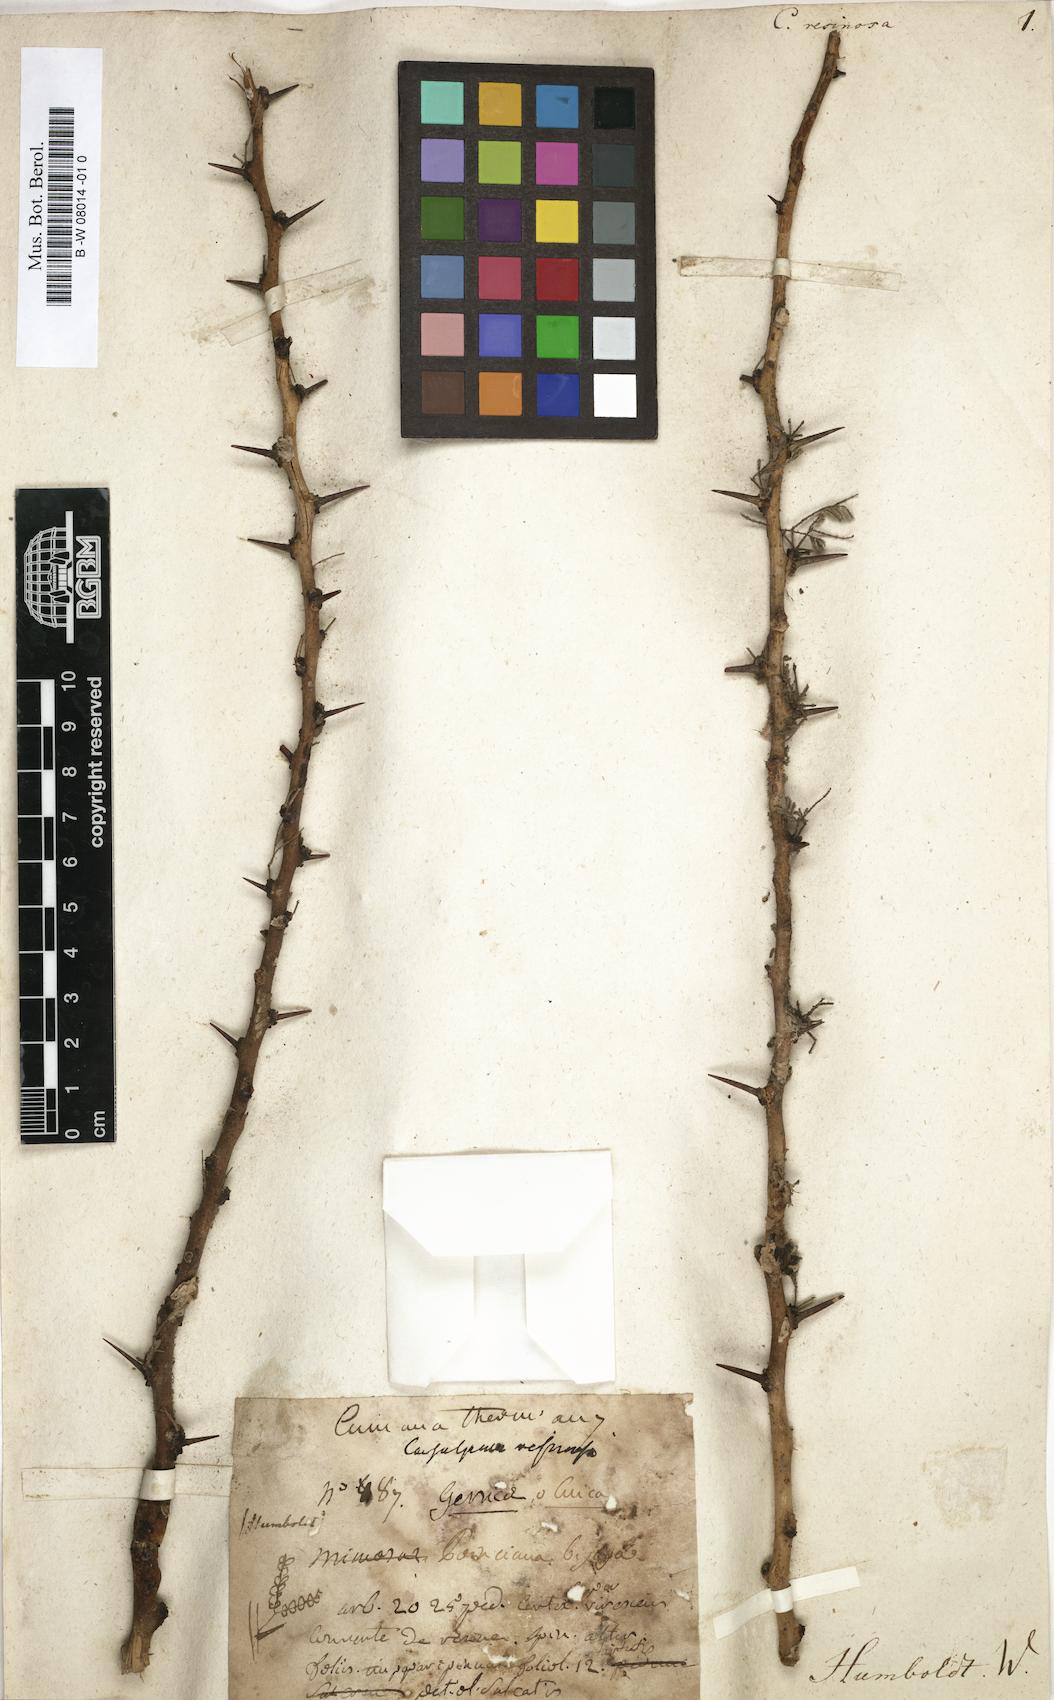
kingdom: Plantae
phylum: Tracheophyta
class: Magnoliopsida
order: Fabales
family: Fabaceae
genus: Caesalpinia
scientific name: Caesalpinia
